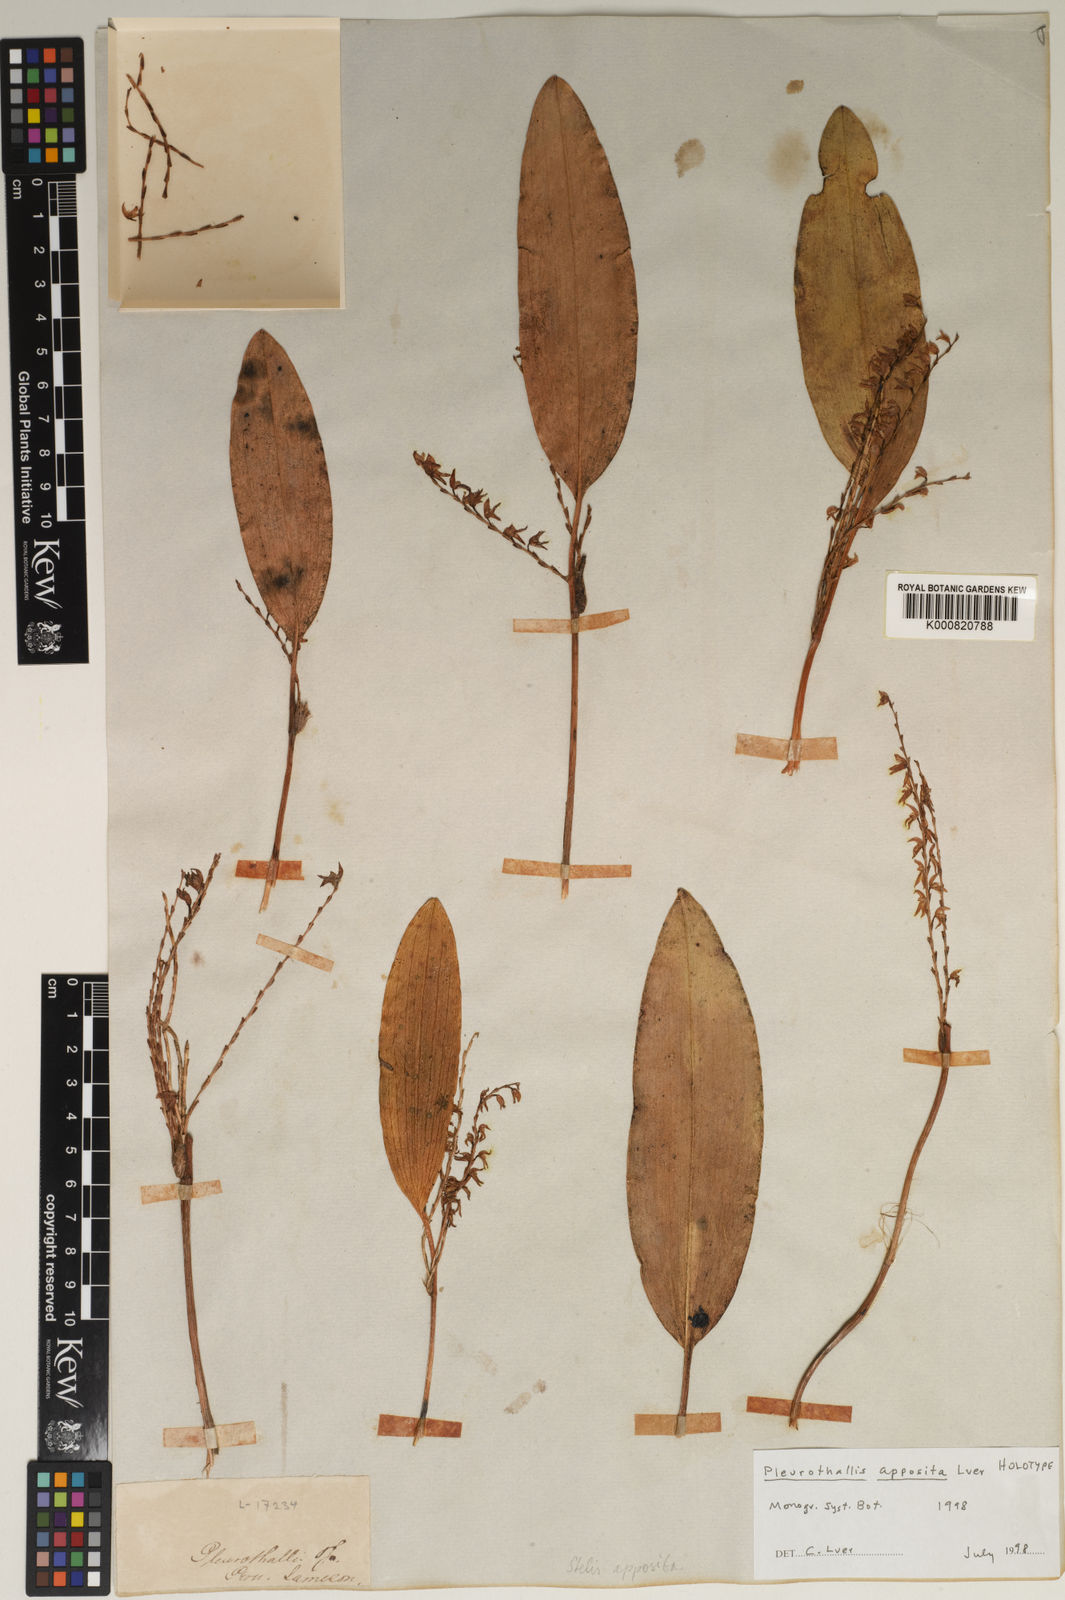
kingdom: Plantae
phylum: Tracheophyta
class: Liliopsida
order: Asparagales
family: Orchidaceae
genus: Stelis
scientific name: Stelis apposita
